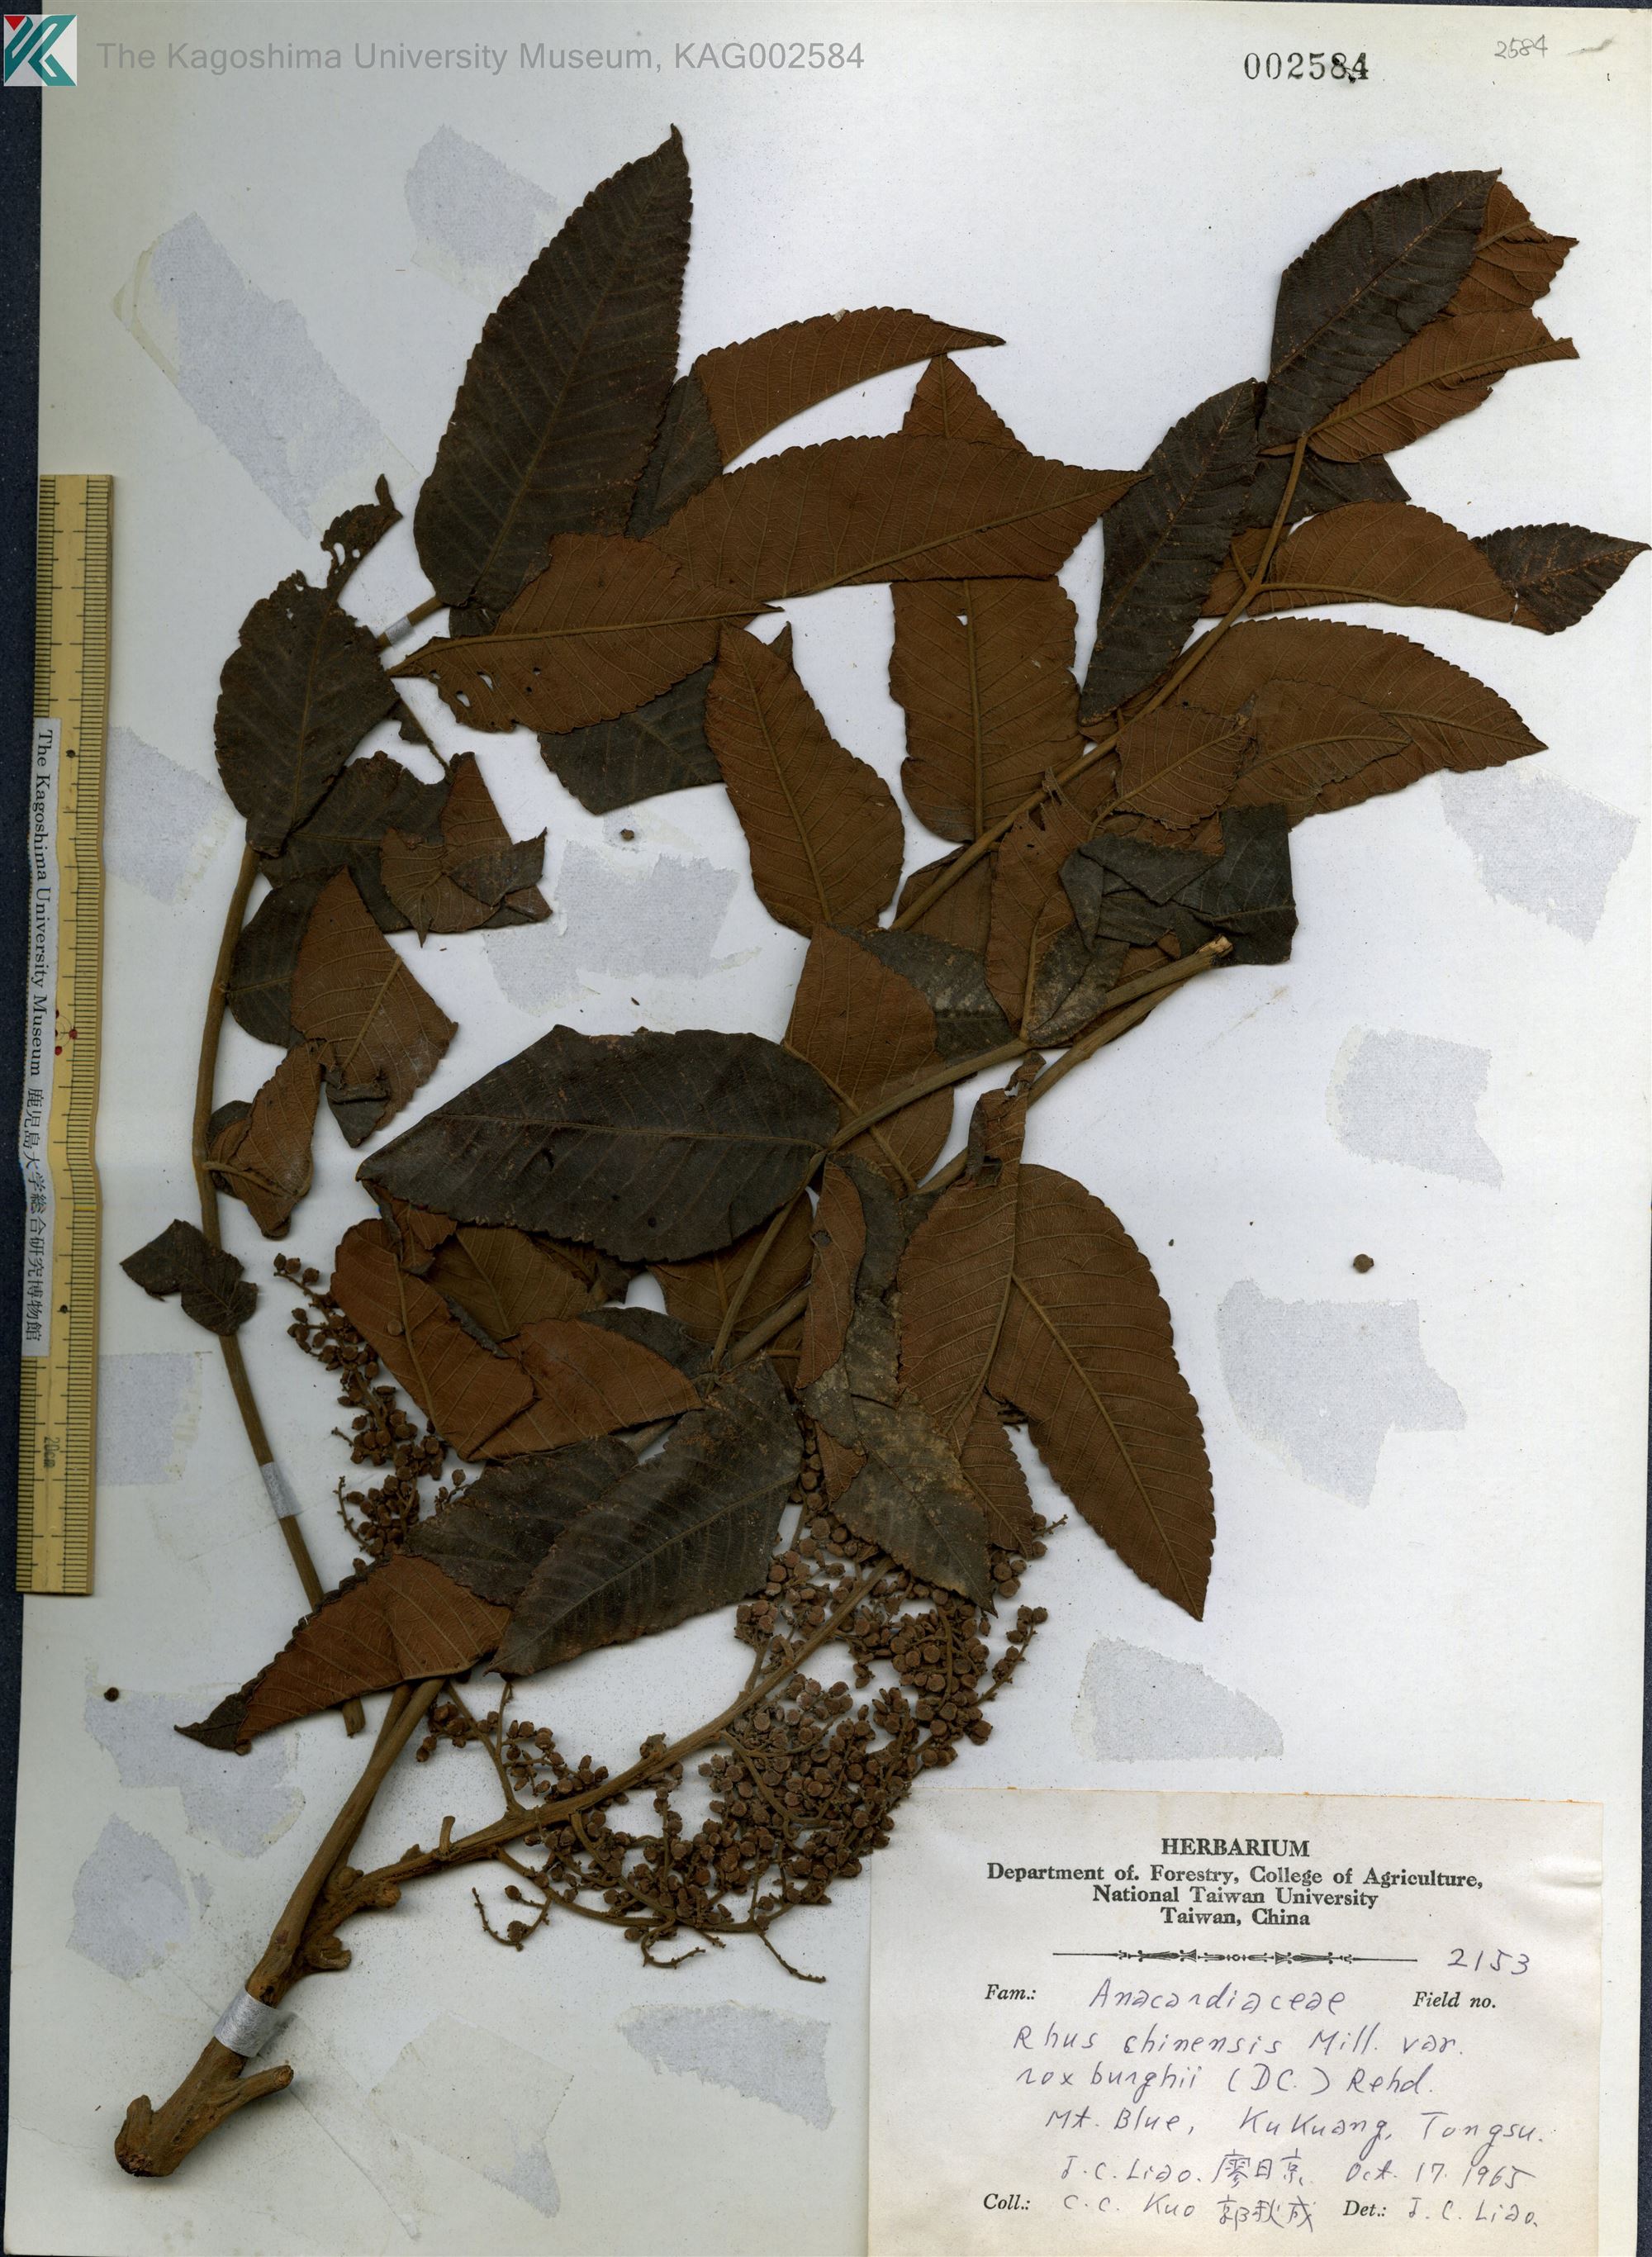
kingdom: Plantae
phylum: Tracheophyta
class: Magnoliopsida
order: Sapindales
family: Anacardiaceae
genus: Rhus
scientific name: Rhus chinensis
